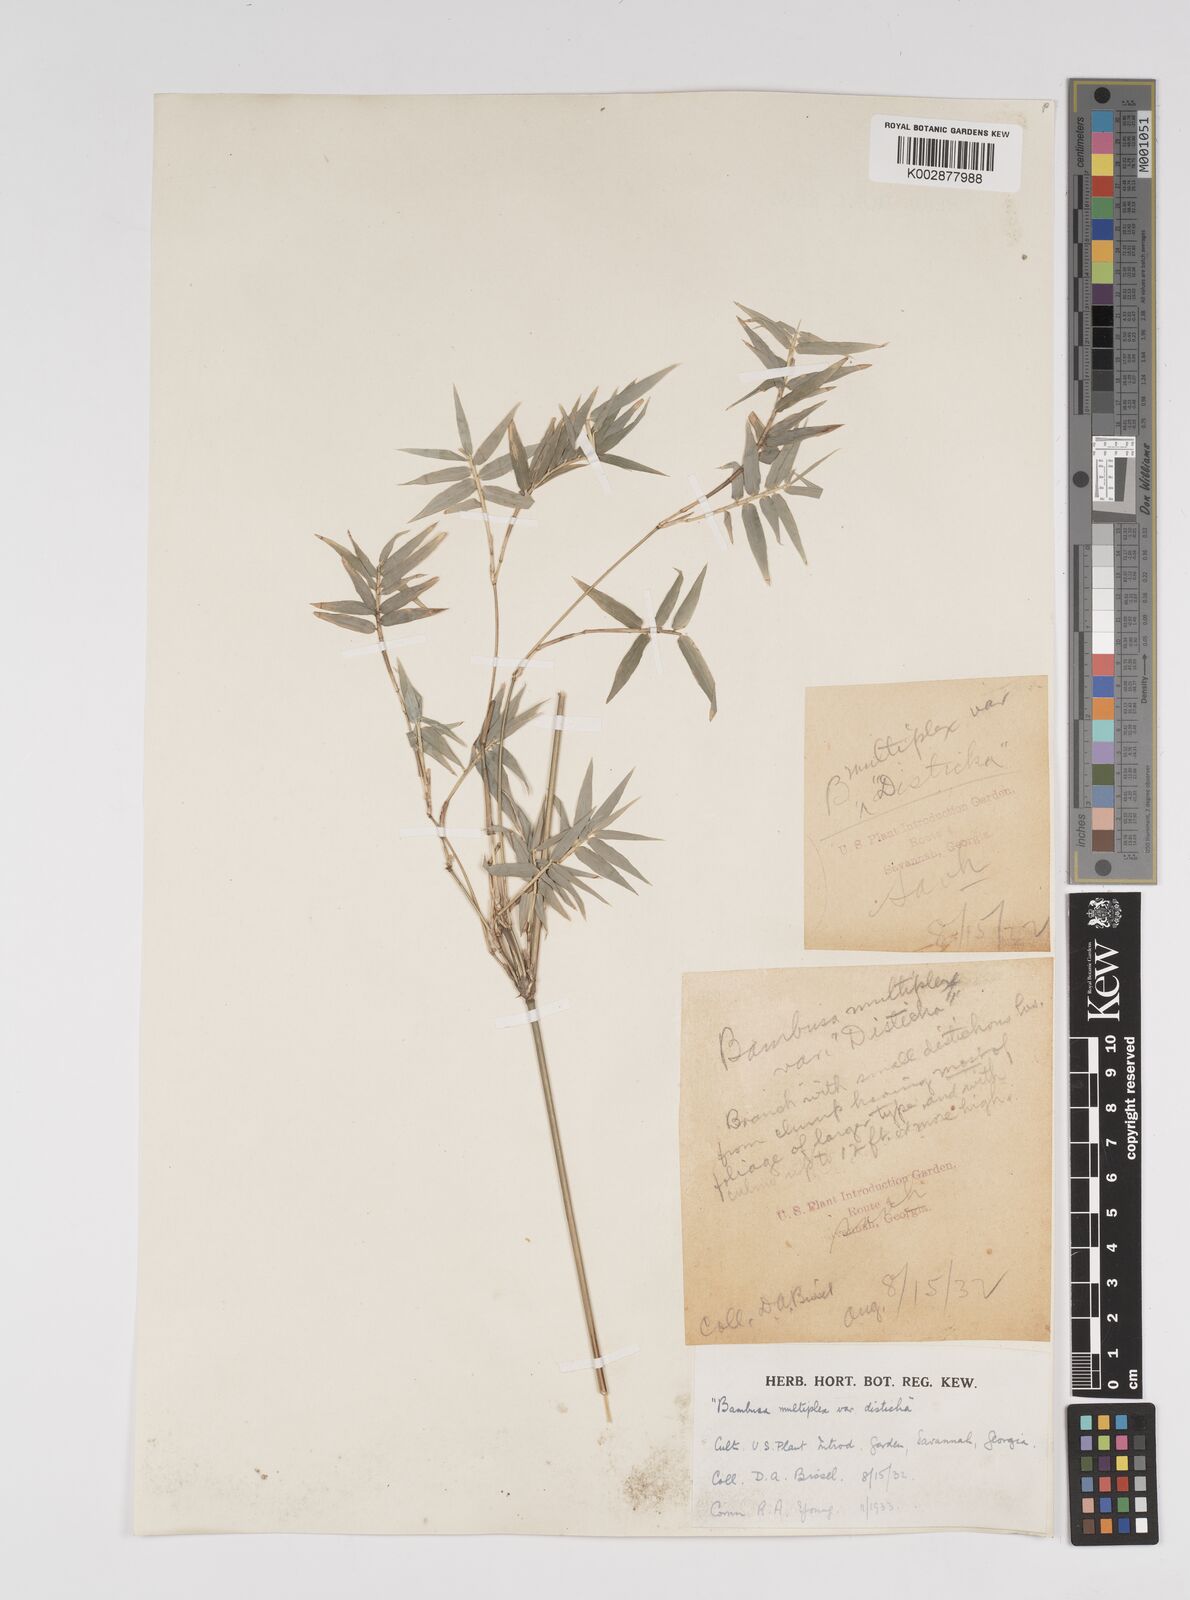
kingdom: Plantae
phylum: Tracheophyta
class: Liliopsida
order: Poales
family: Poaceae
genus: Bambusa
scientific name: Bambusa
